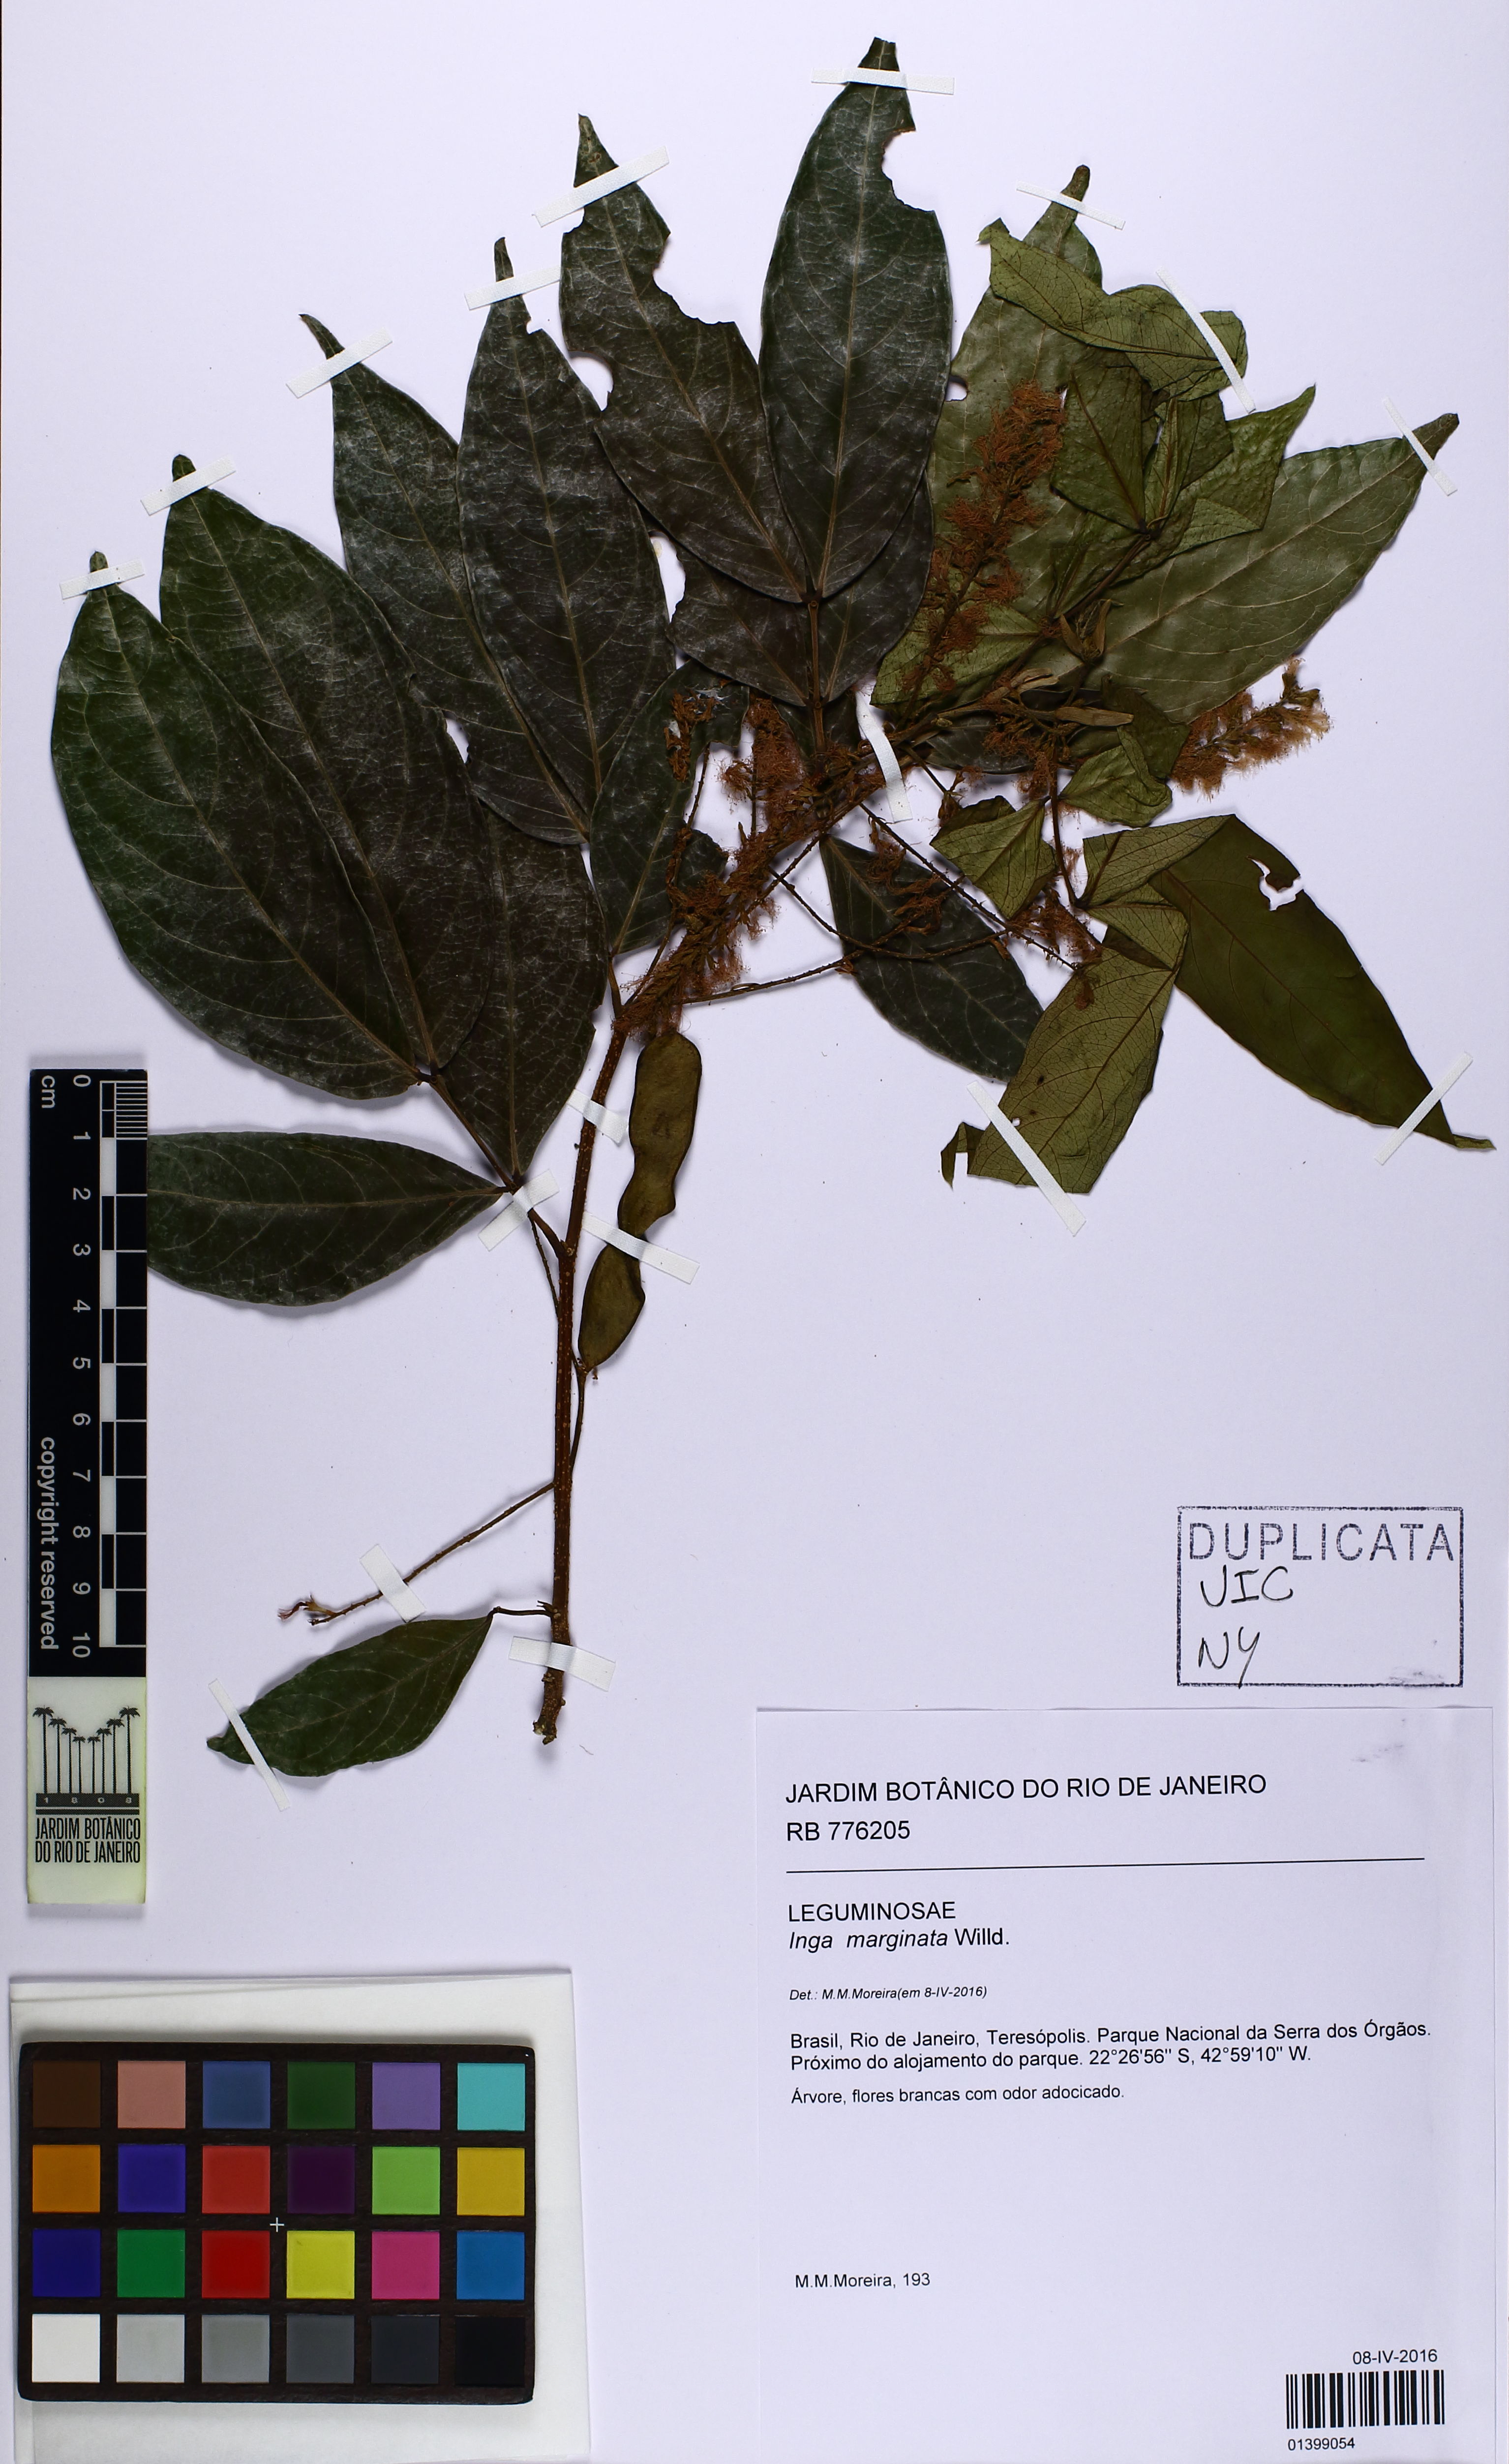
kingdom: Plantae
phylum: Tracheophyta
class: Magnoliopsida
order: Fabales
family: Fabaceae
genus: Inga
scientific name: Inga marginata
